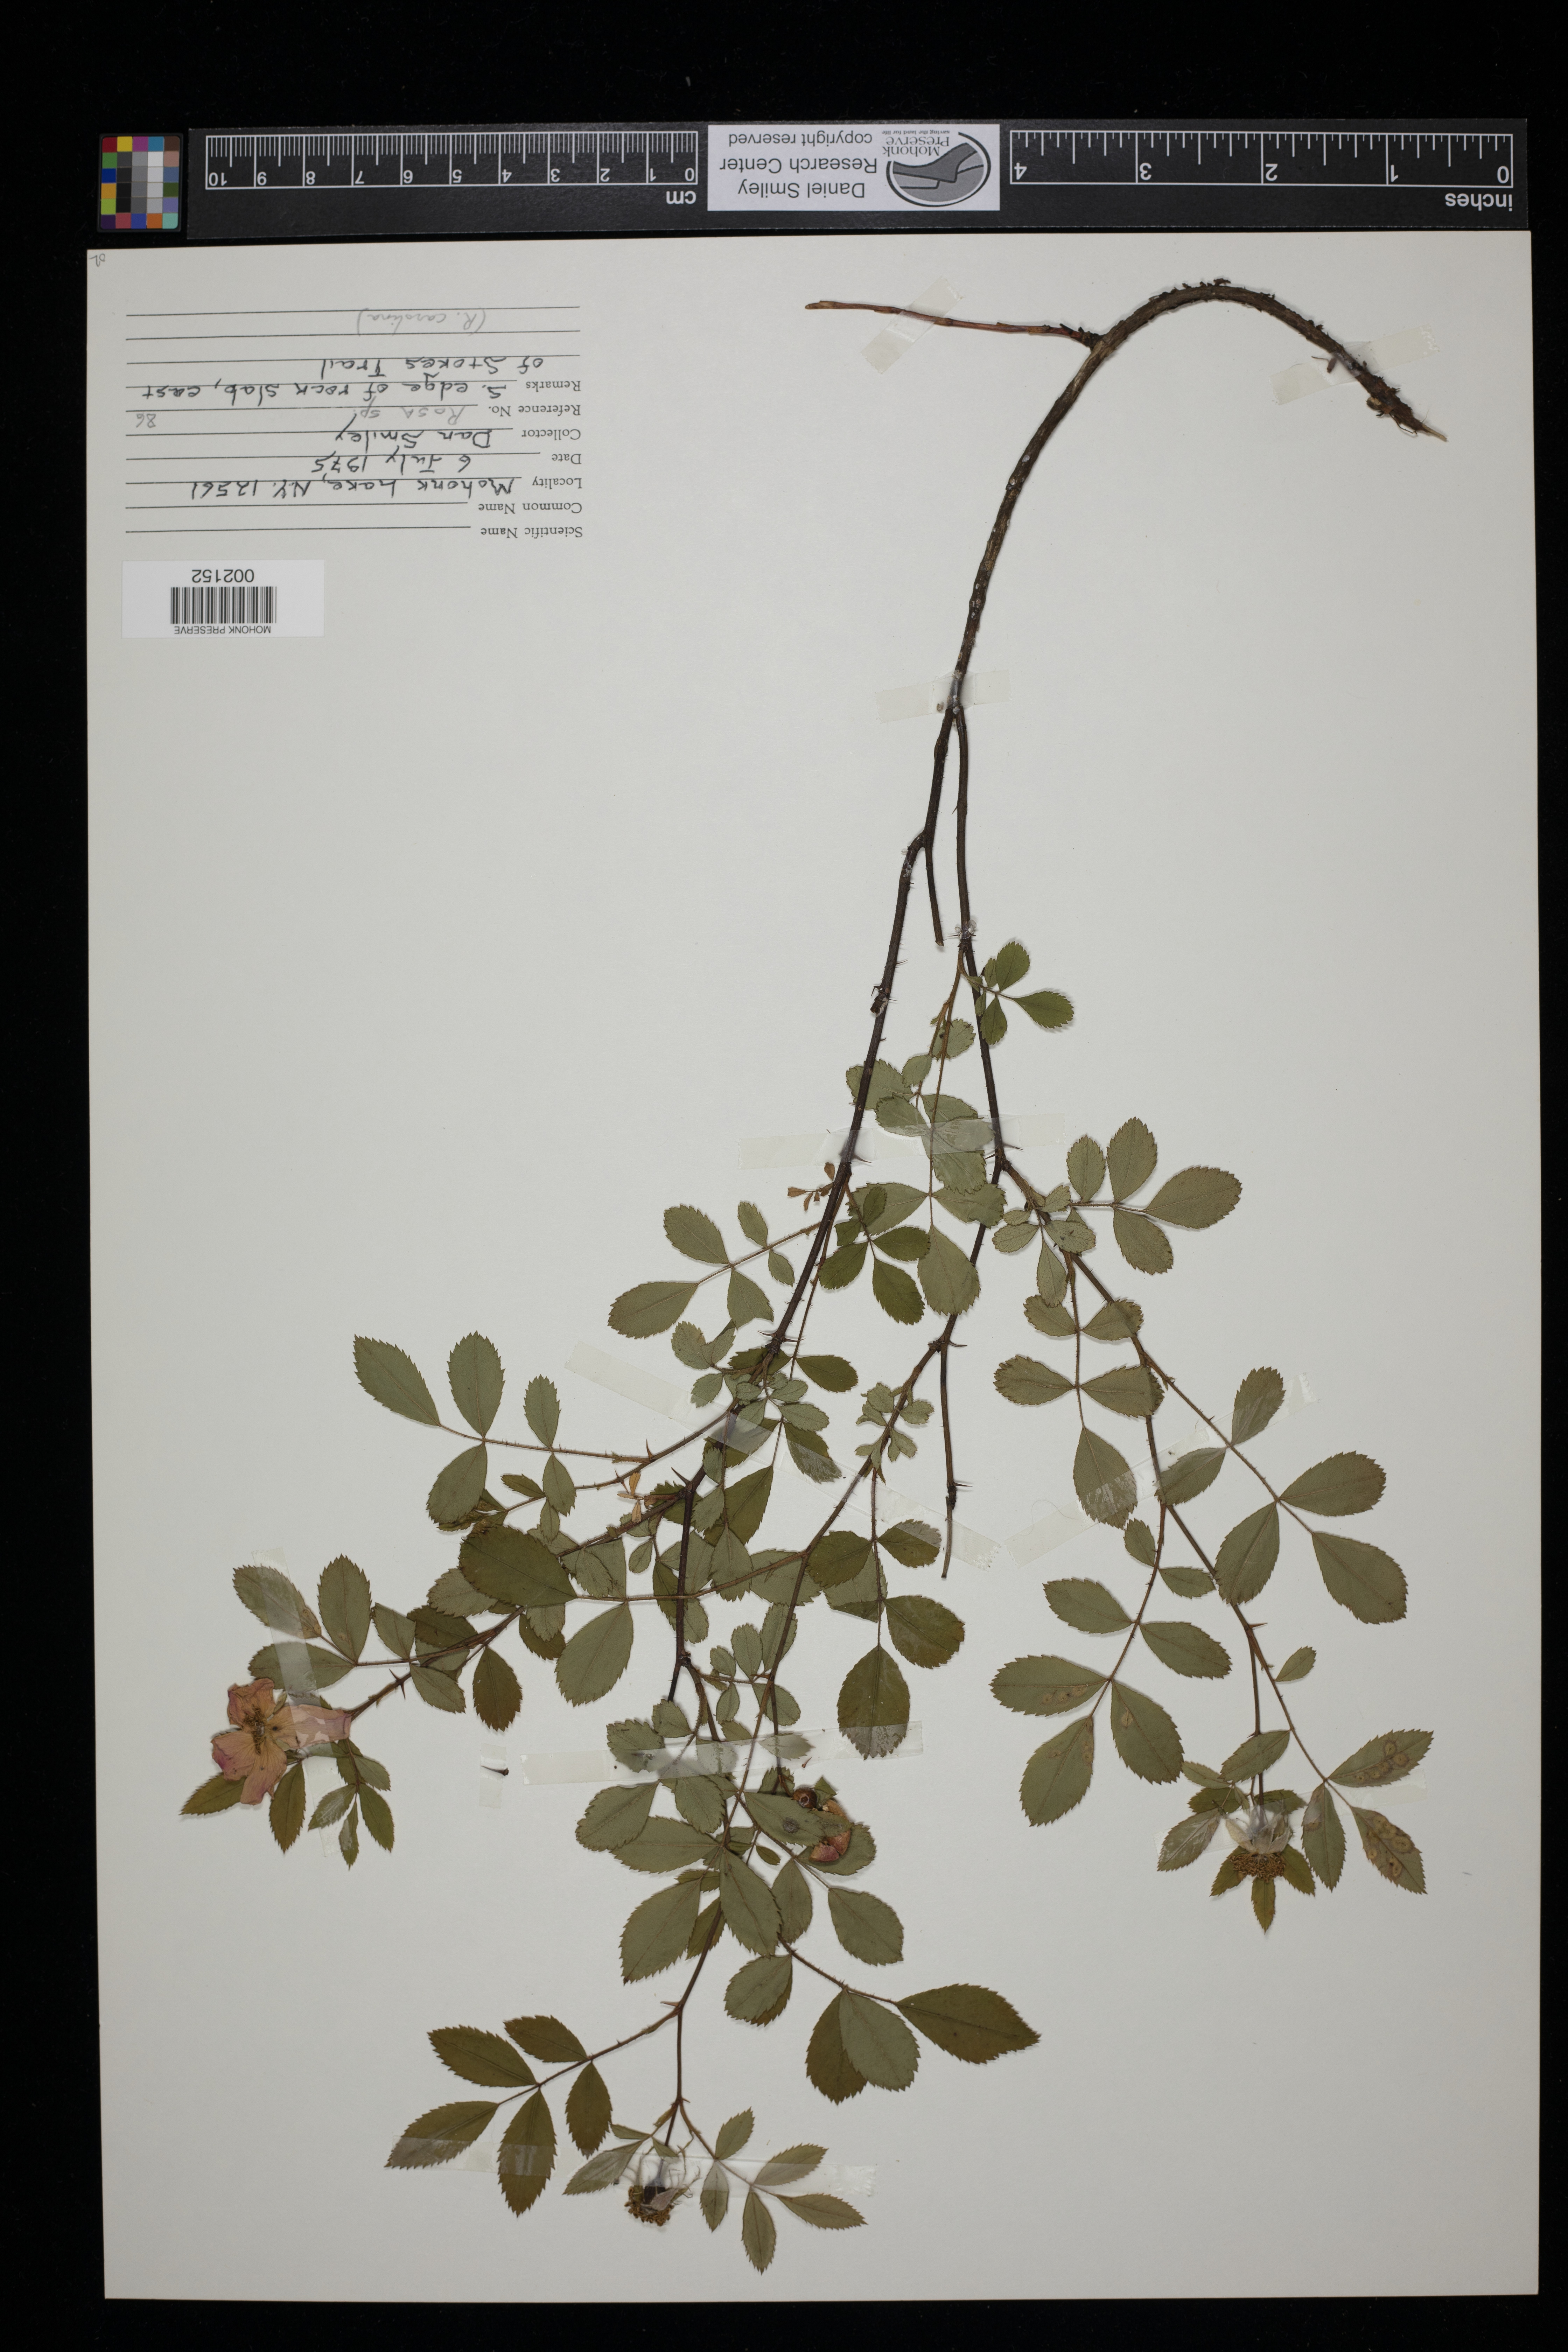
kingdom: Plantae
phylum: Tracheophyta
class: Magnoliopsida
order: Rosales
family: Rosaceae
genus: Rosa
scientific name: Rosa carolina
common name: Pasture rose
